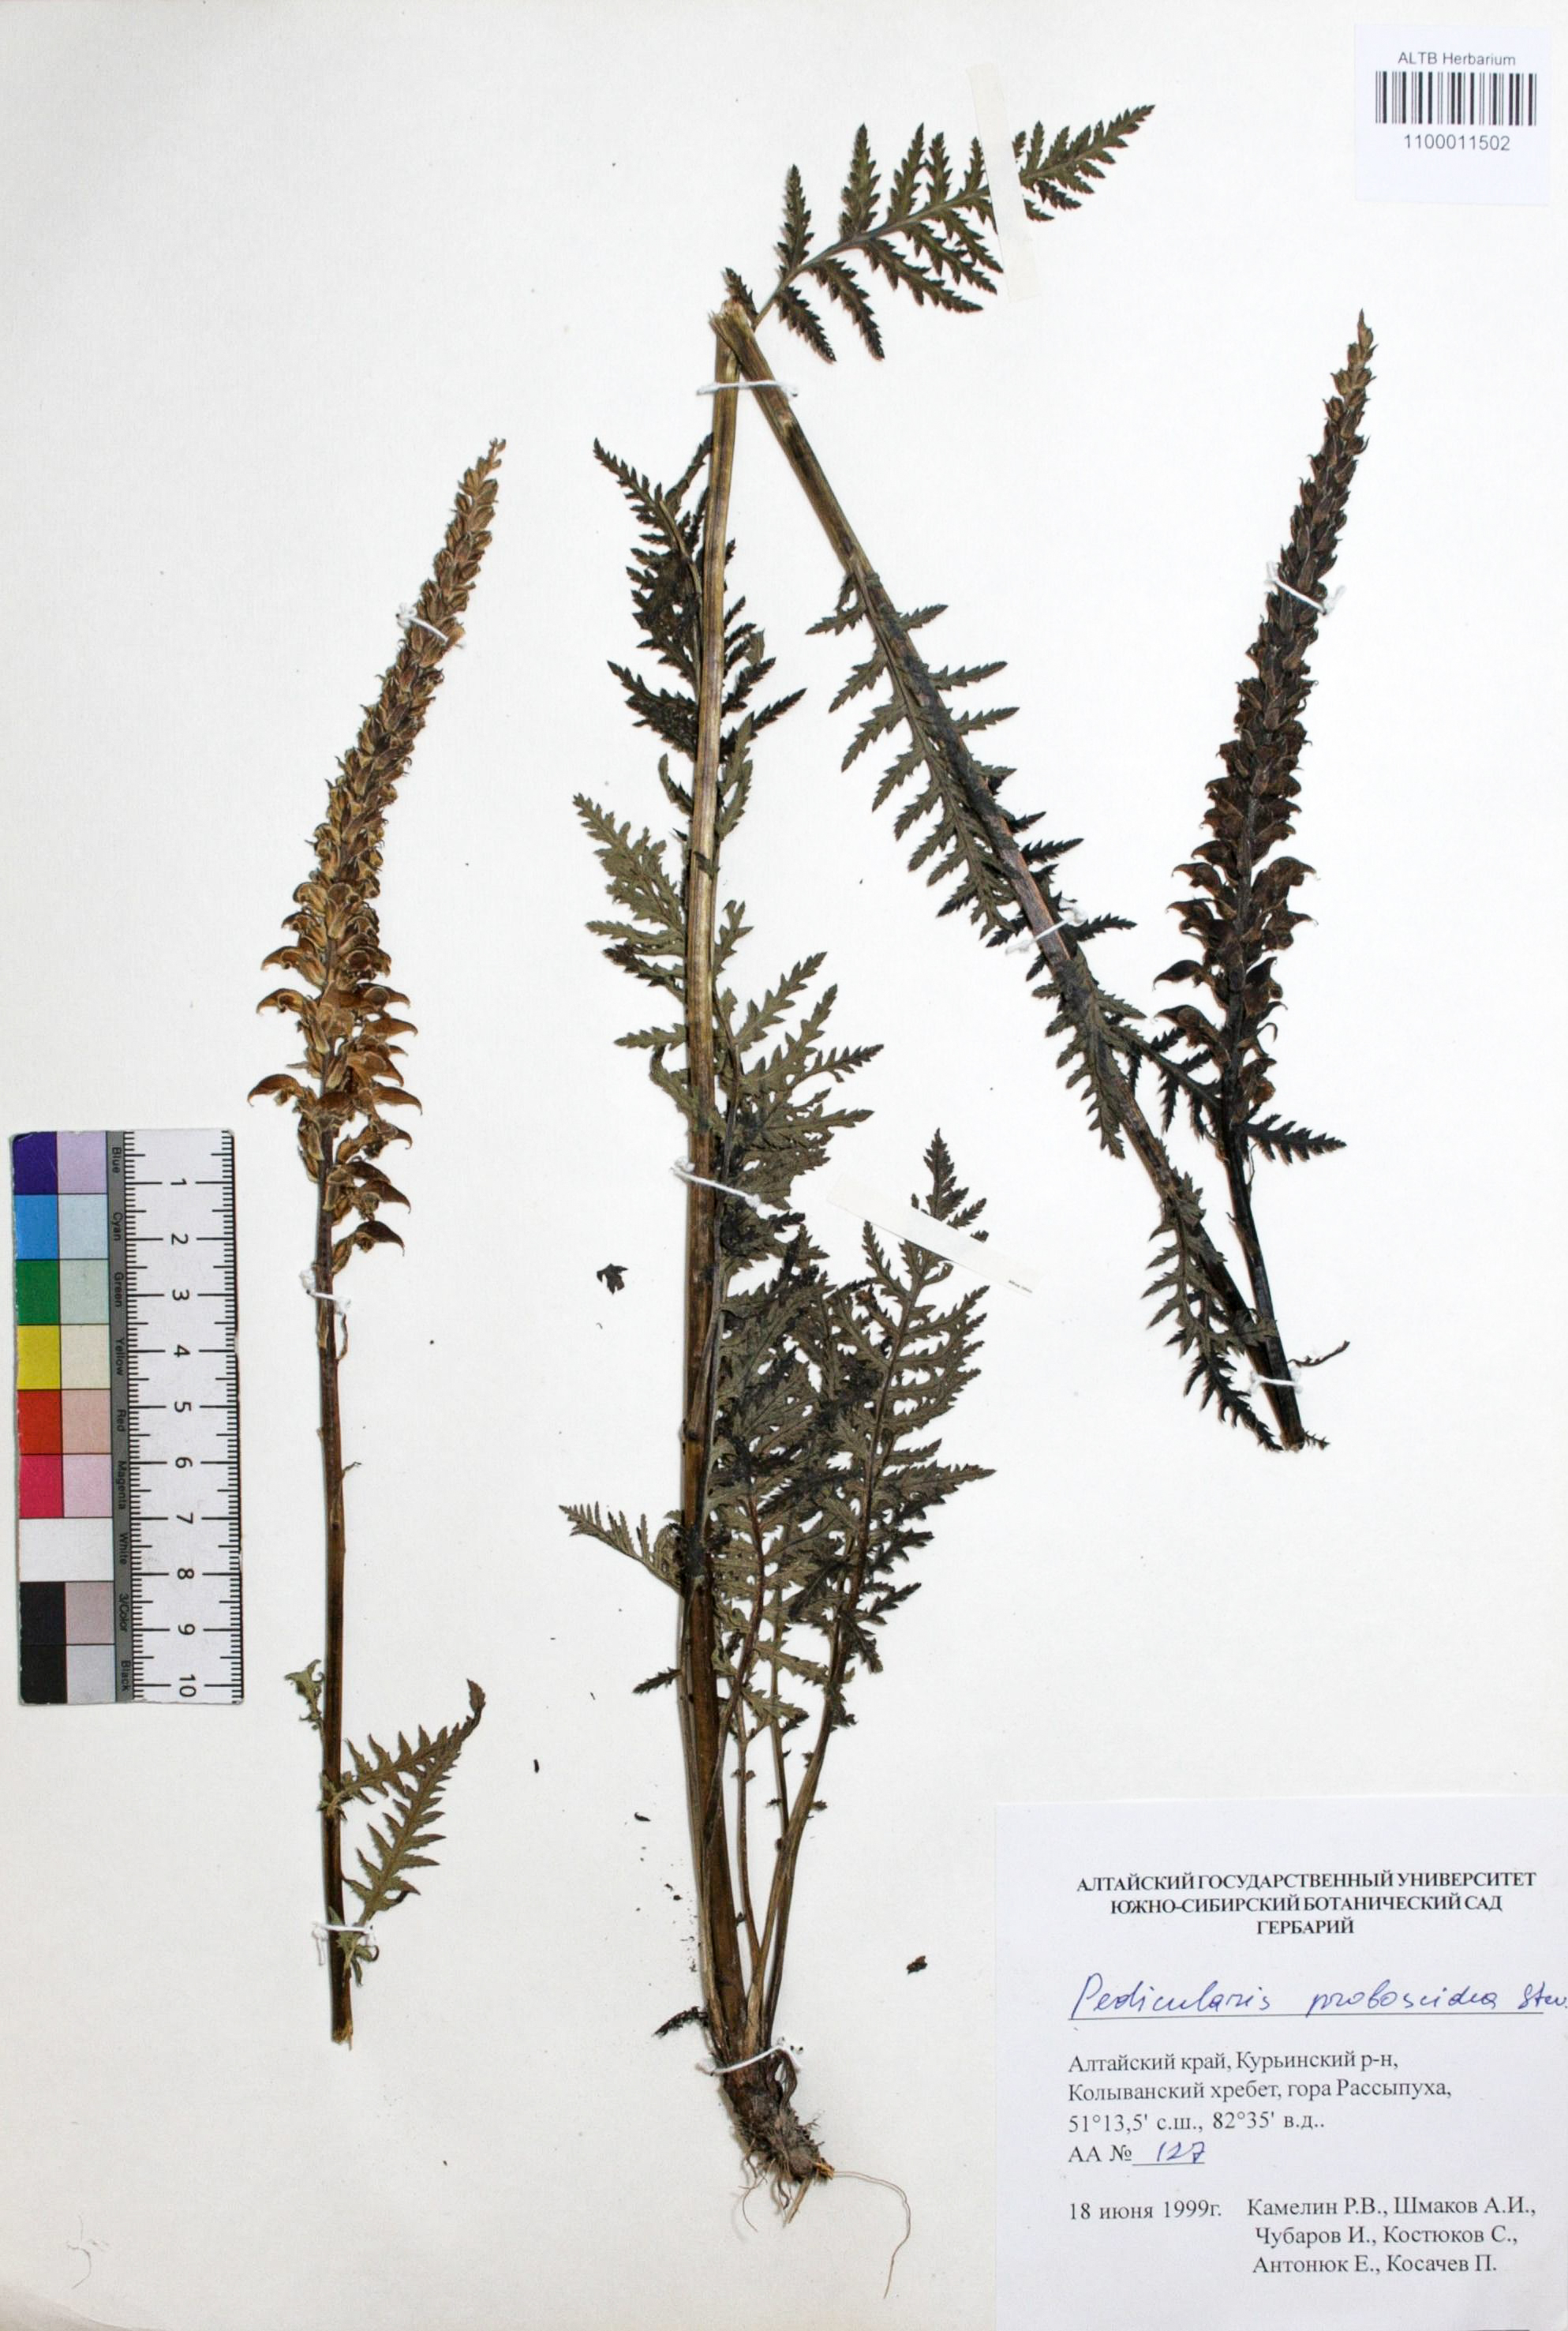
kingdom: Plantae
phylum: Tracheophyta
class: Magnoliopsida
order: Lamiales
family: Orobanchaceae
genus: Pedicularis
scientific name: Pedicularis proboscidea
